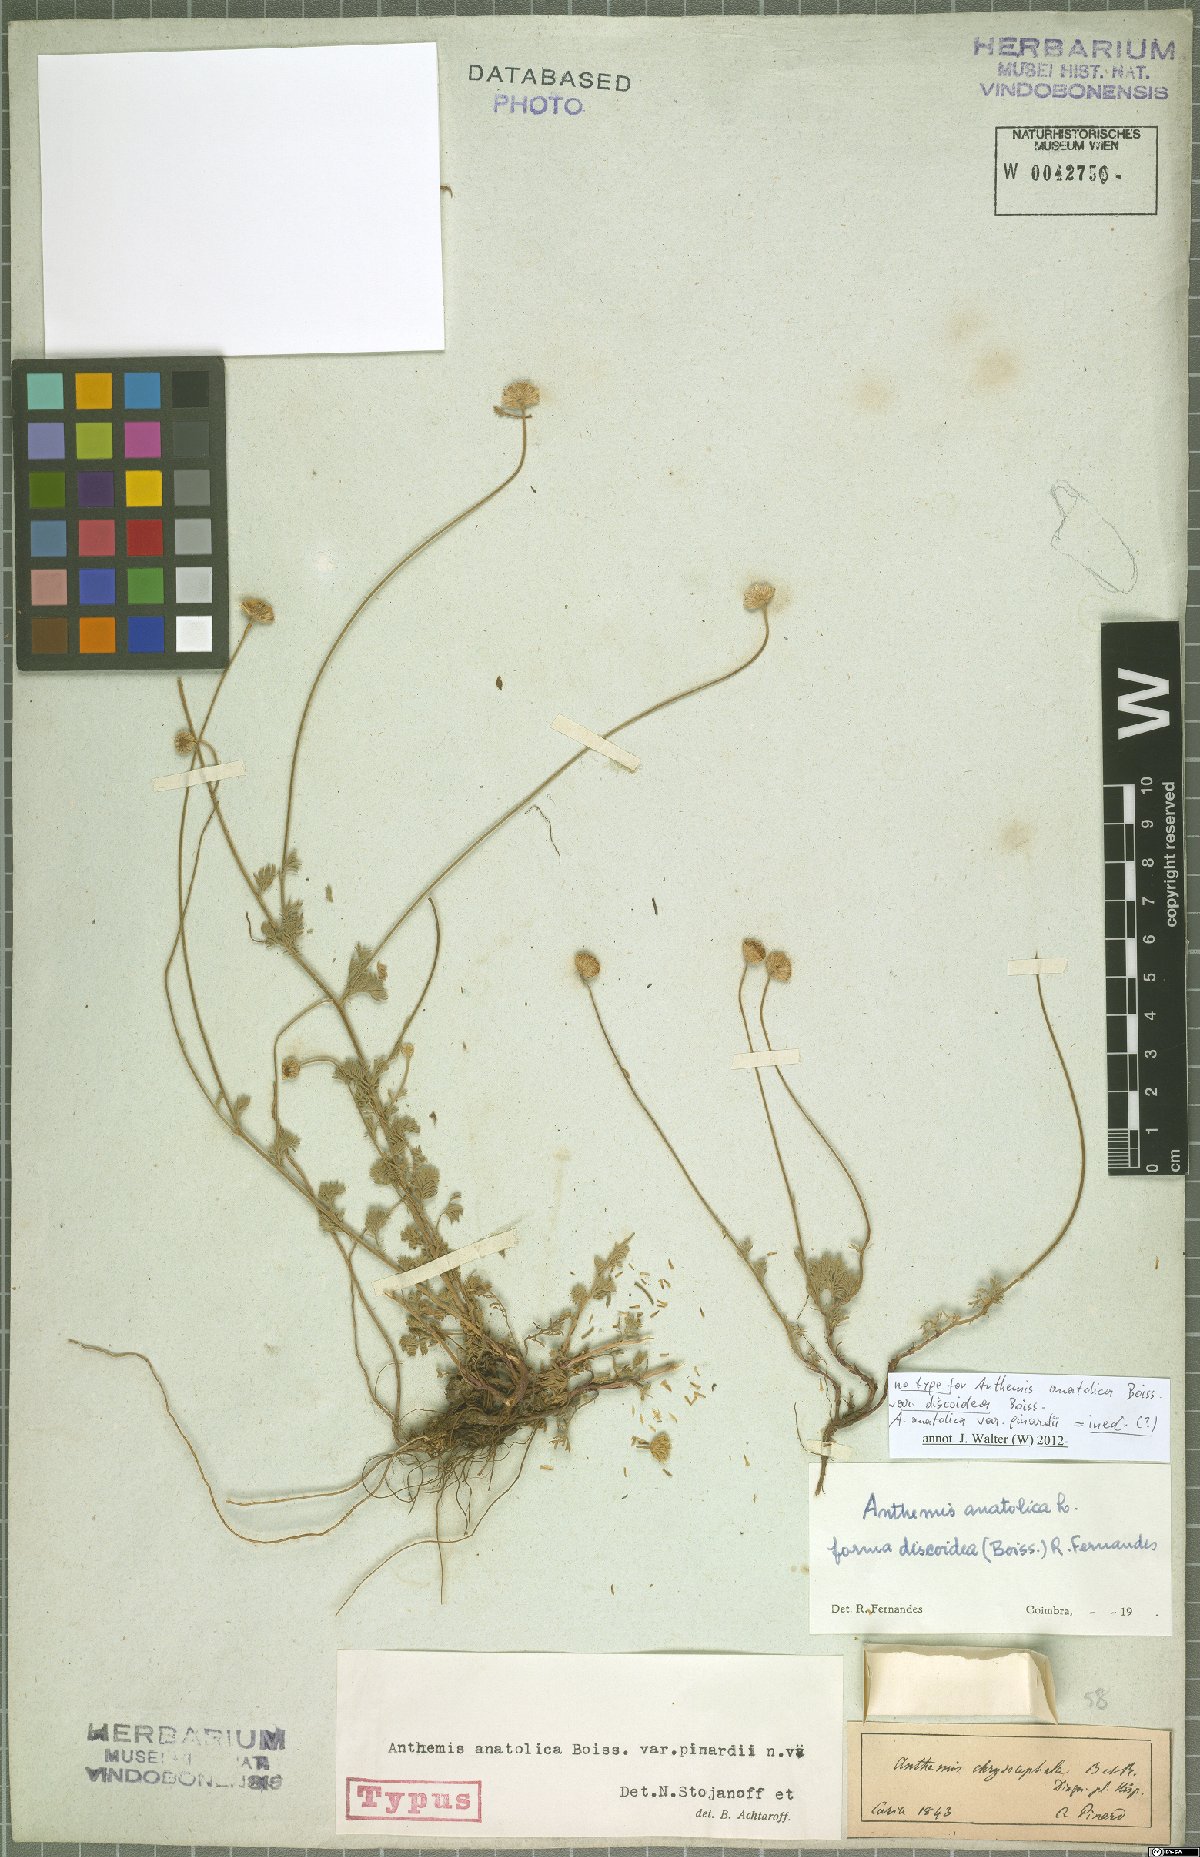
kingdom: Plantae
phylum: Tracheophyta
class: Magnoliopsida
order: Asterales
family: Asteraceae
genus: Anthemis
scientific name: Anthemis cretica
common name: Mountain dog-daisy
